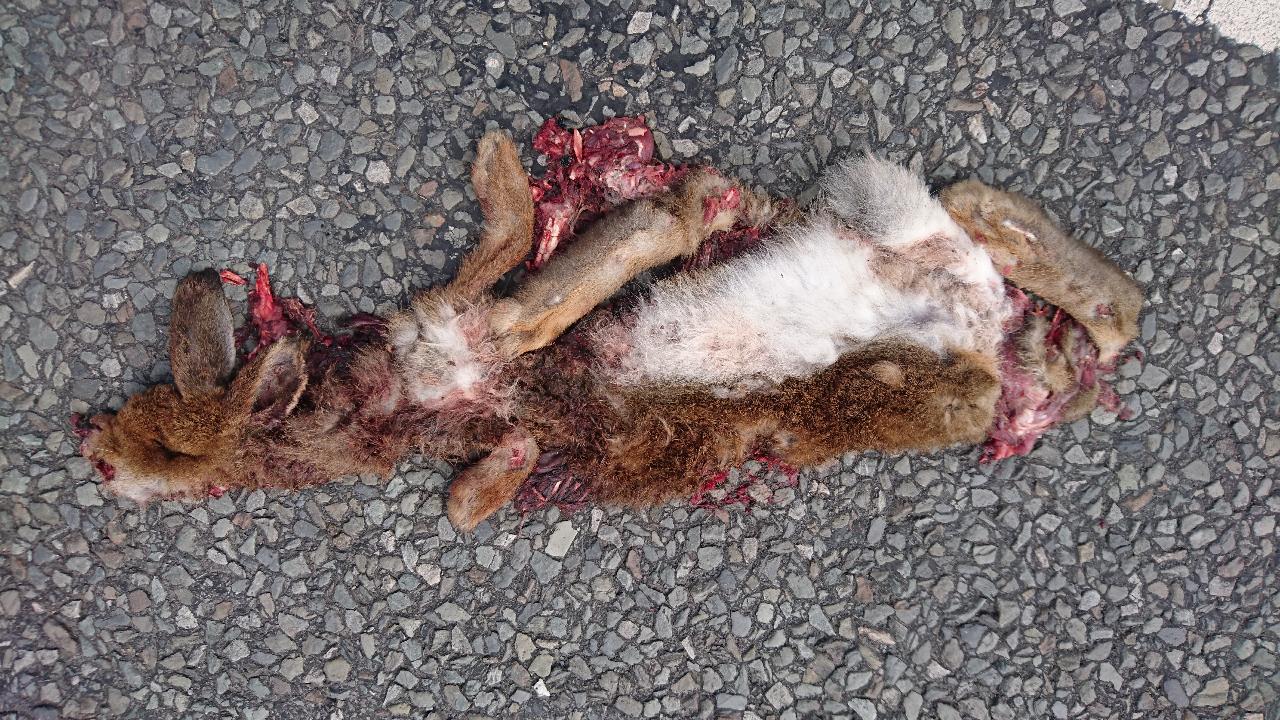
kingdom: Animalia
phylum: Chordata
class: Mammalia
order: Lagomorpha
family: Leporidae
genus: Oryctolagus
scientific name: Oryctolagus cuniculus
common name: European rabbit
